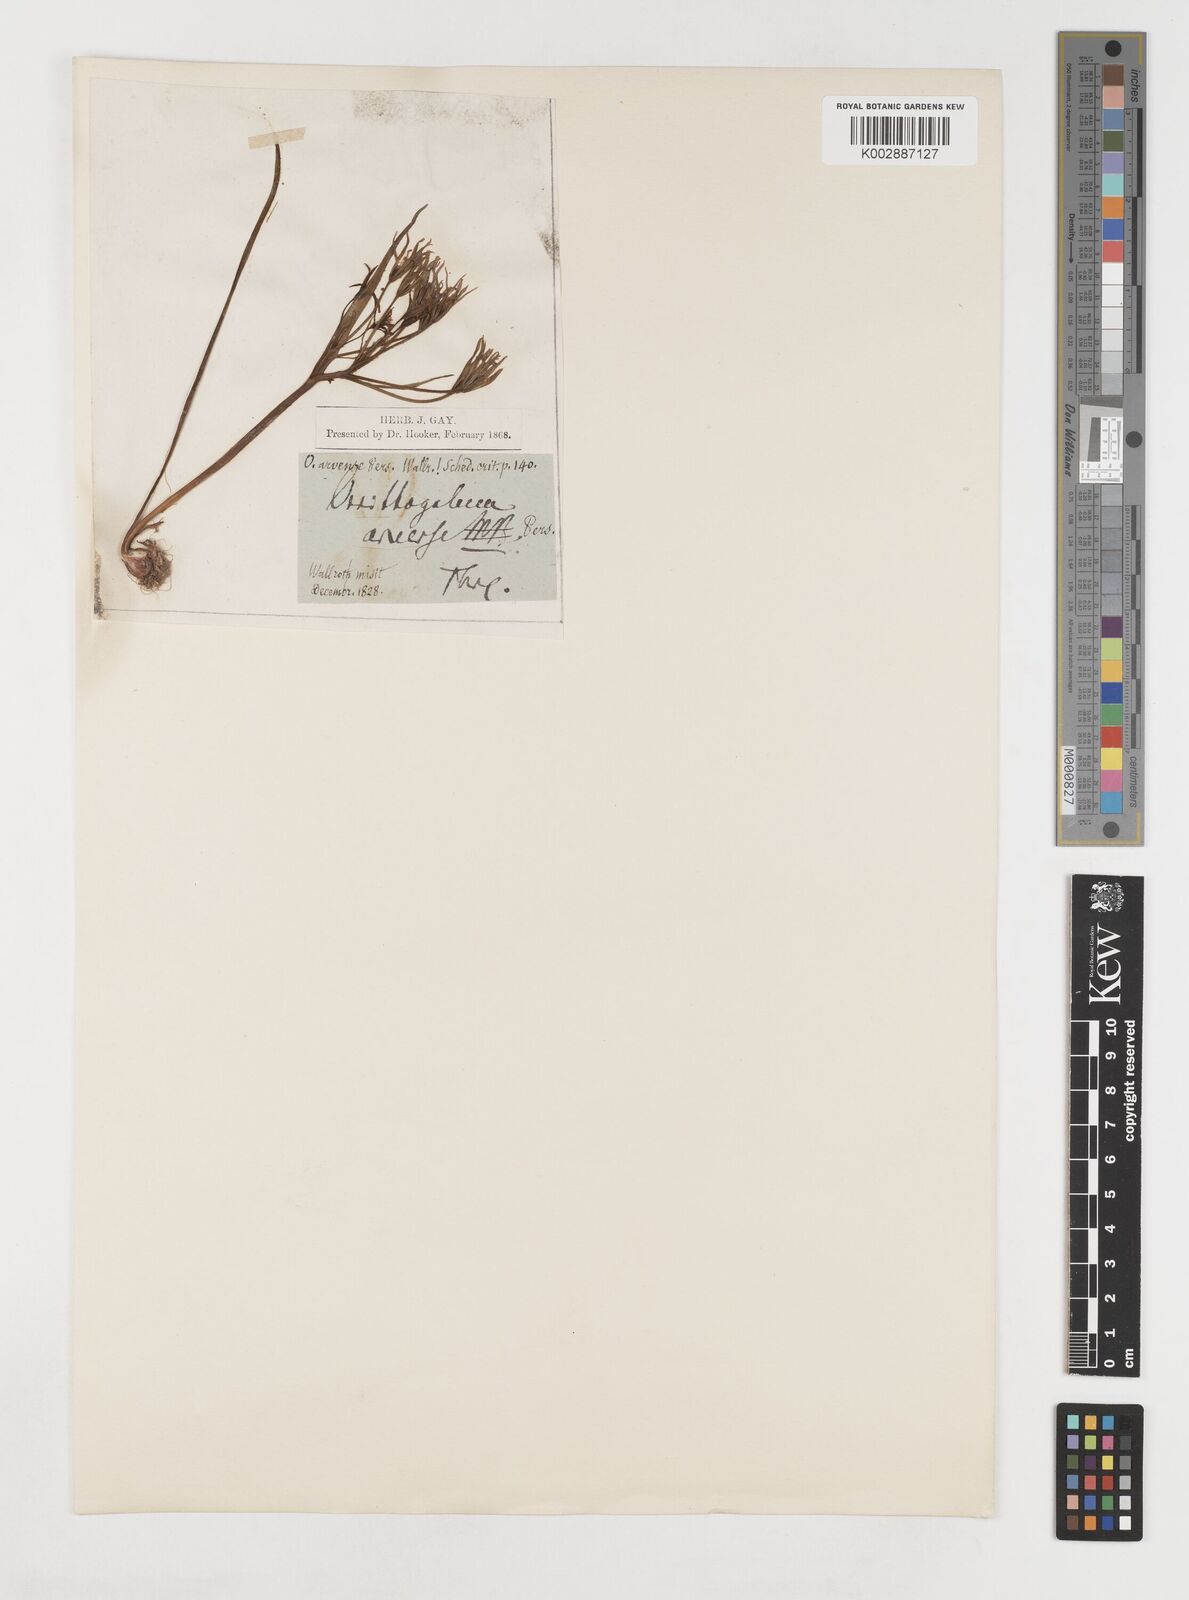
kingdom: Plantae
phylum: Tracheophyta
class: Liliopsida
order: Liliales
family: Liliaceae
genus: Gagea
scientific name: Gagea minima
